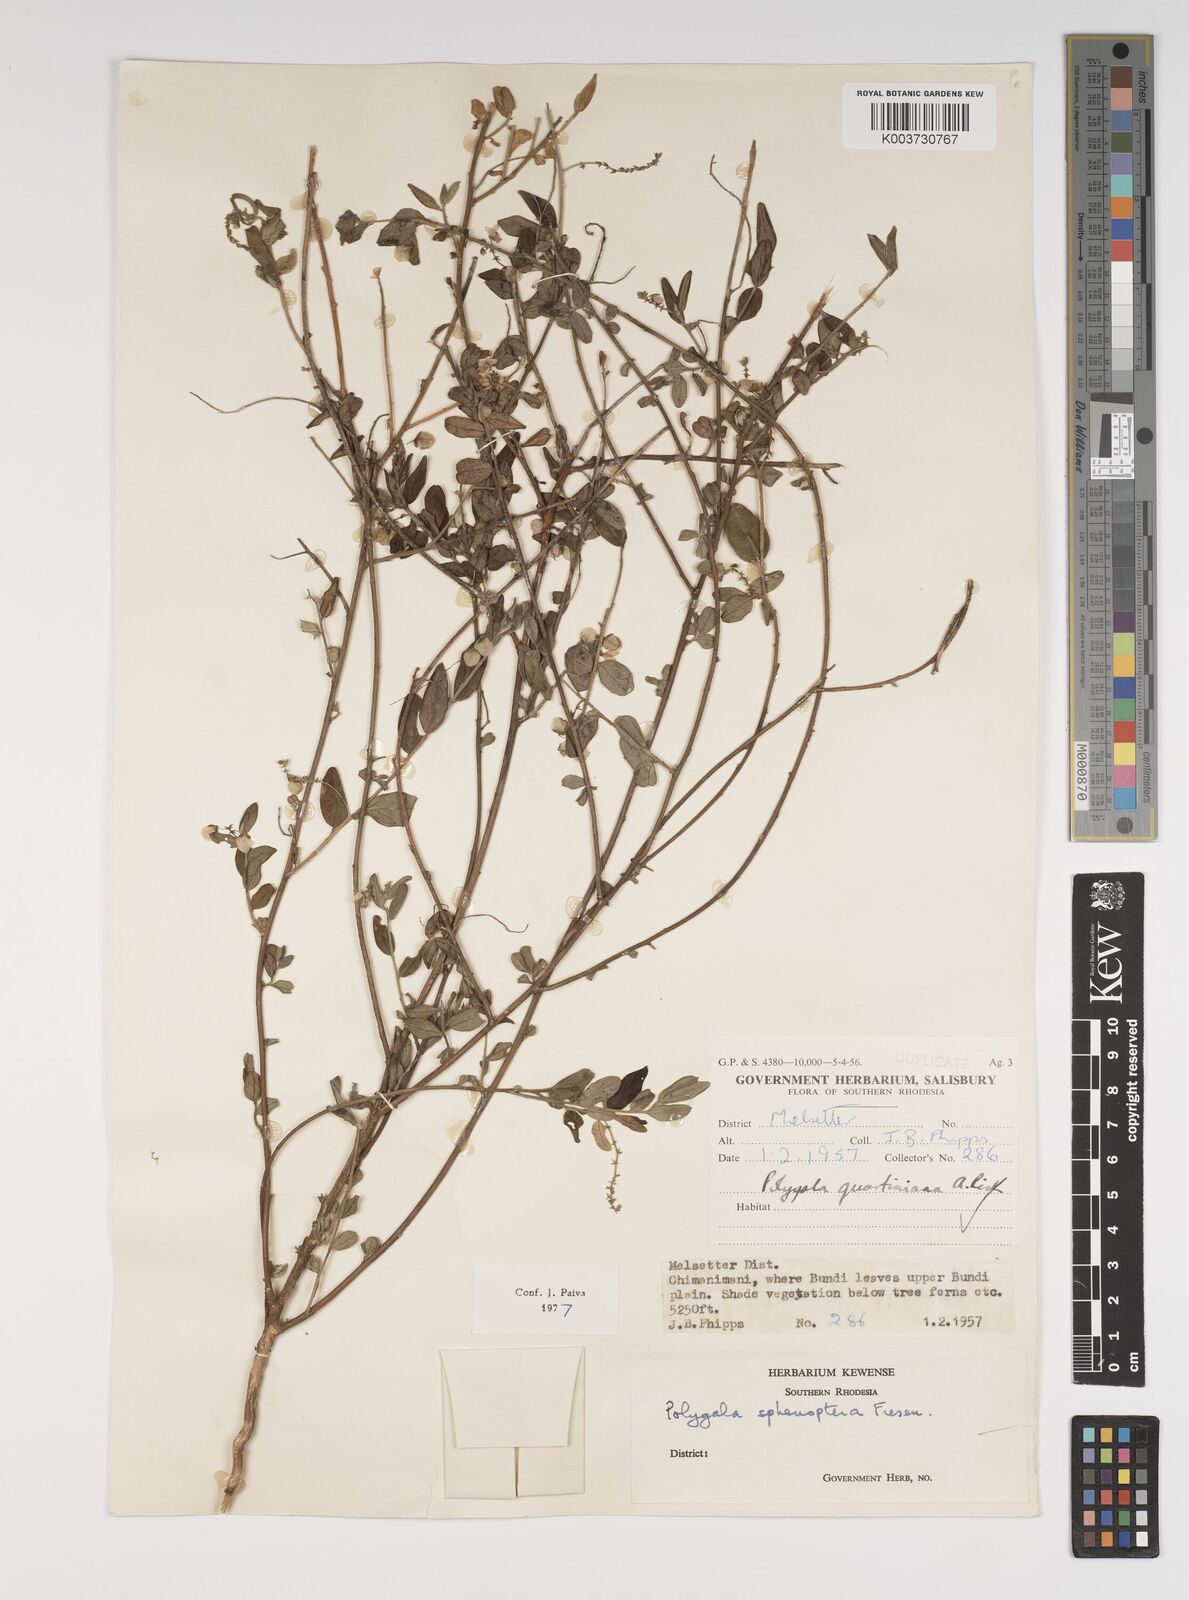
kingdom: Plantae
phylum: Tracheophyta
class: Magnoliopsida
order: Fabales
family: Polygalaceae
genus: Polygala
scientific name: Polygala sphenoptera
